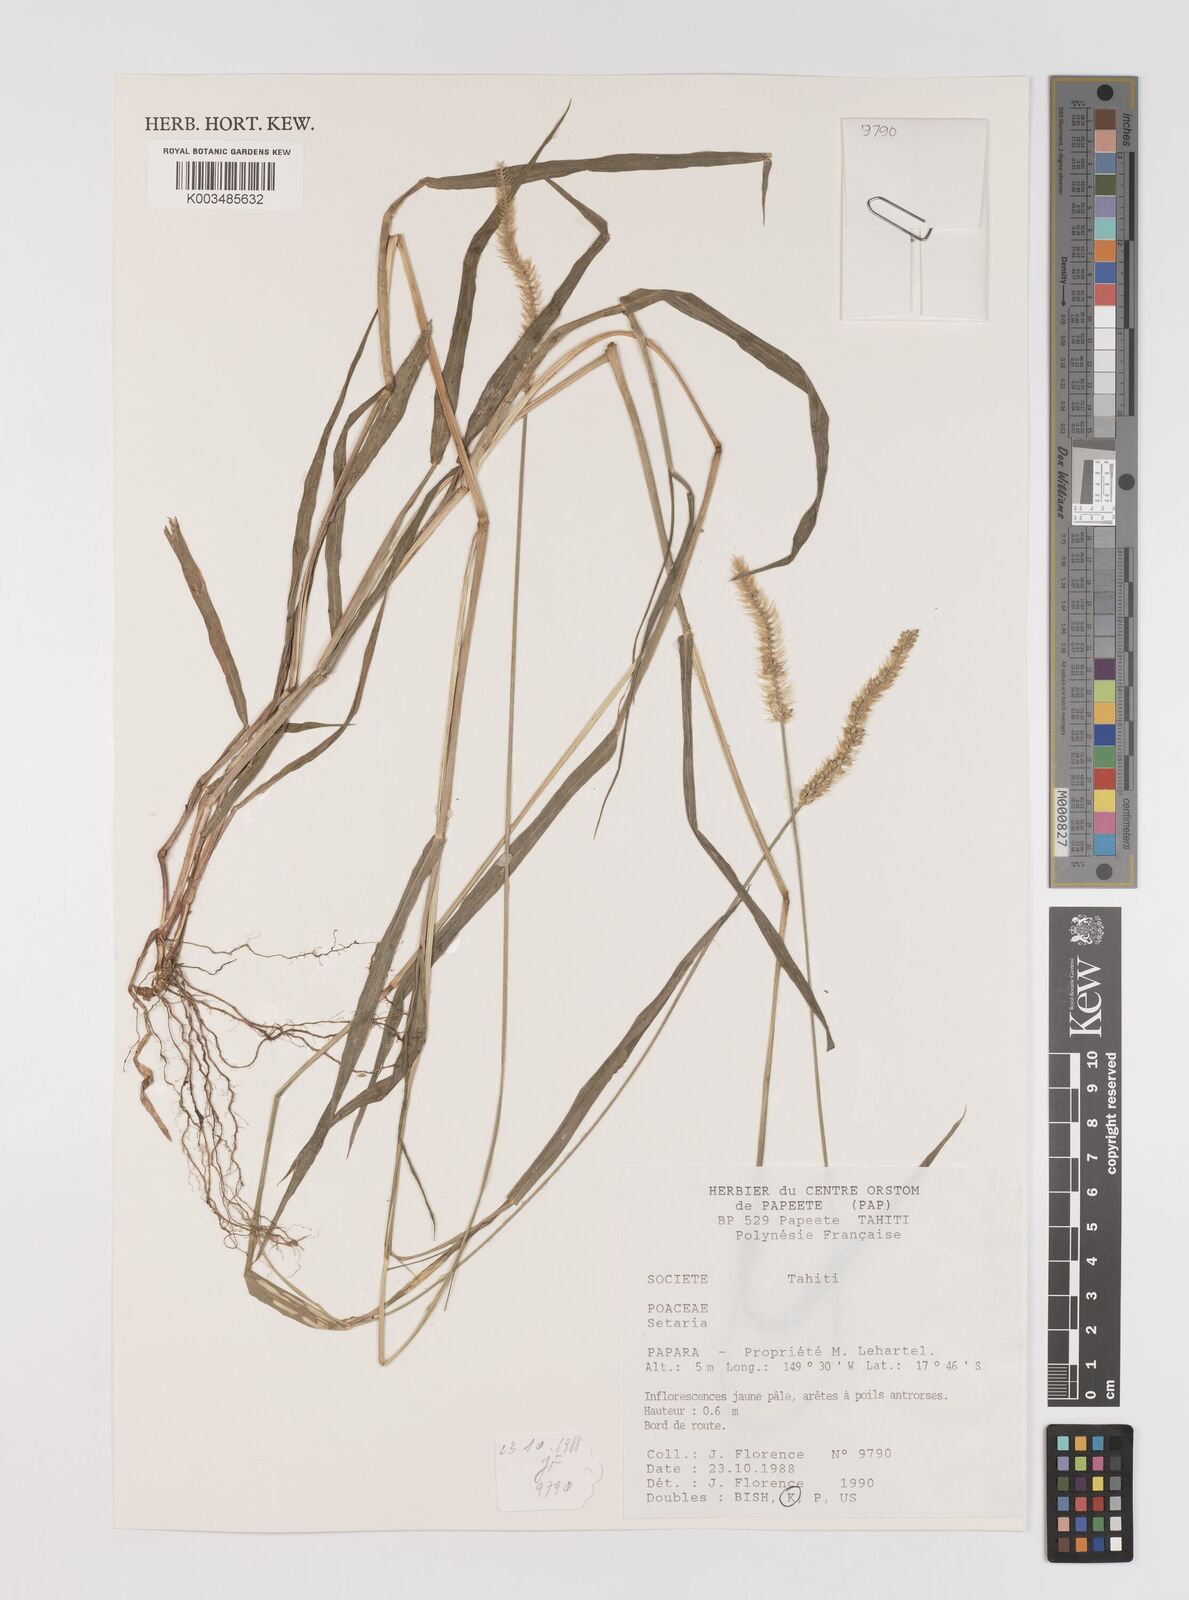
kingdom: Plantae
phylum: Tracheophyta
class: Liliopsida
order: Poales
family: Poaceae
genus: Setaria
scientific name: Setaria pumila
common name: Yellow bristle-grass
